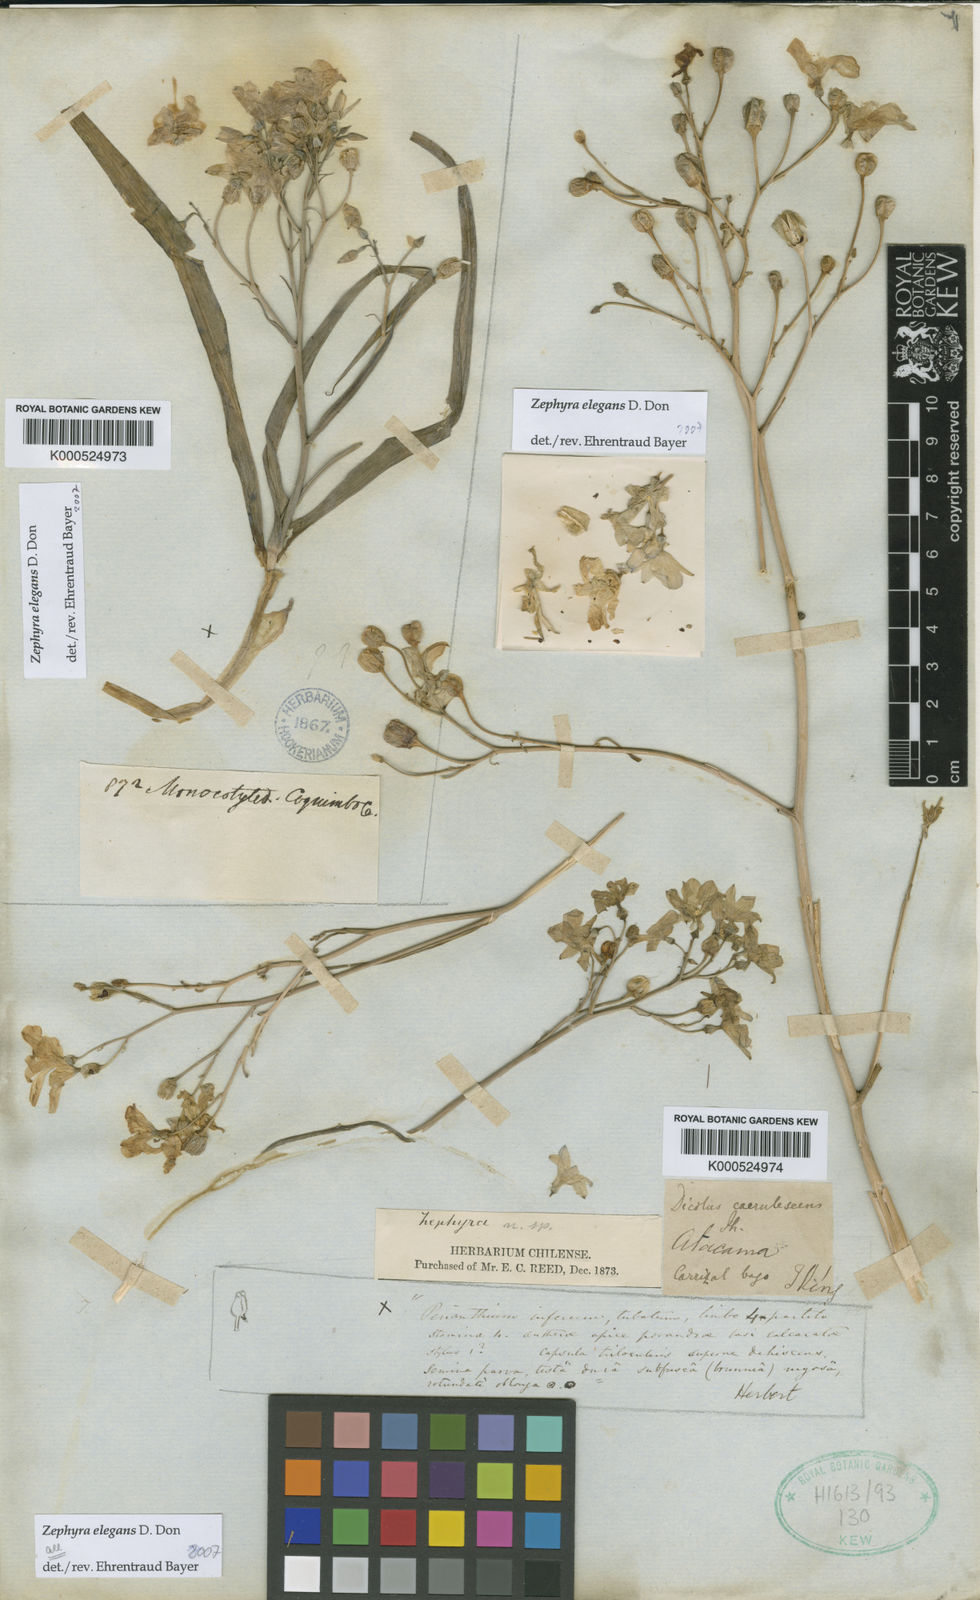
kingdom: Plantae
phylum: Tracheophyta
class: Liliopsida
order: Asparagales
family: Tecophilaeaceae
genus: Zephyra
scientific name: Zephyra elegans
